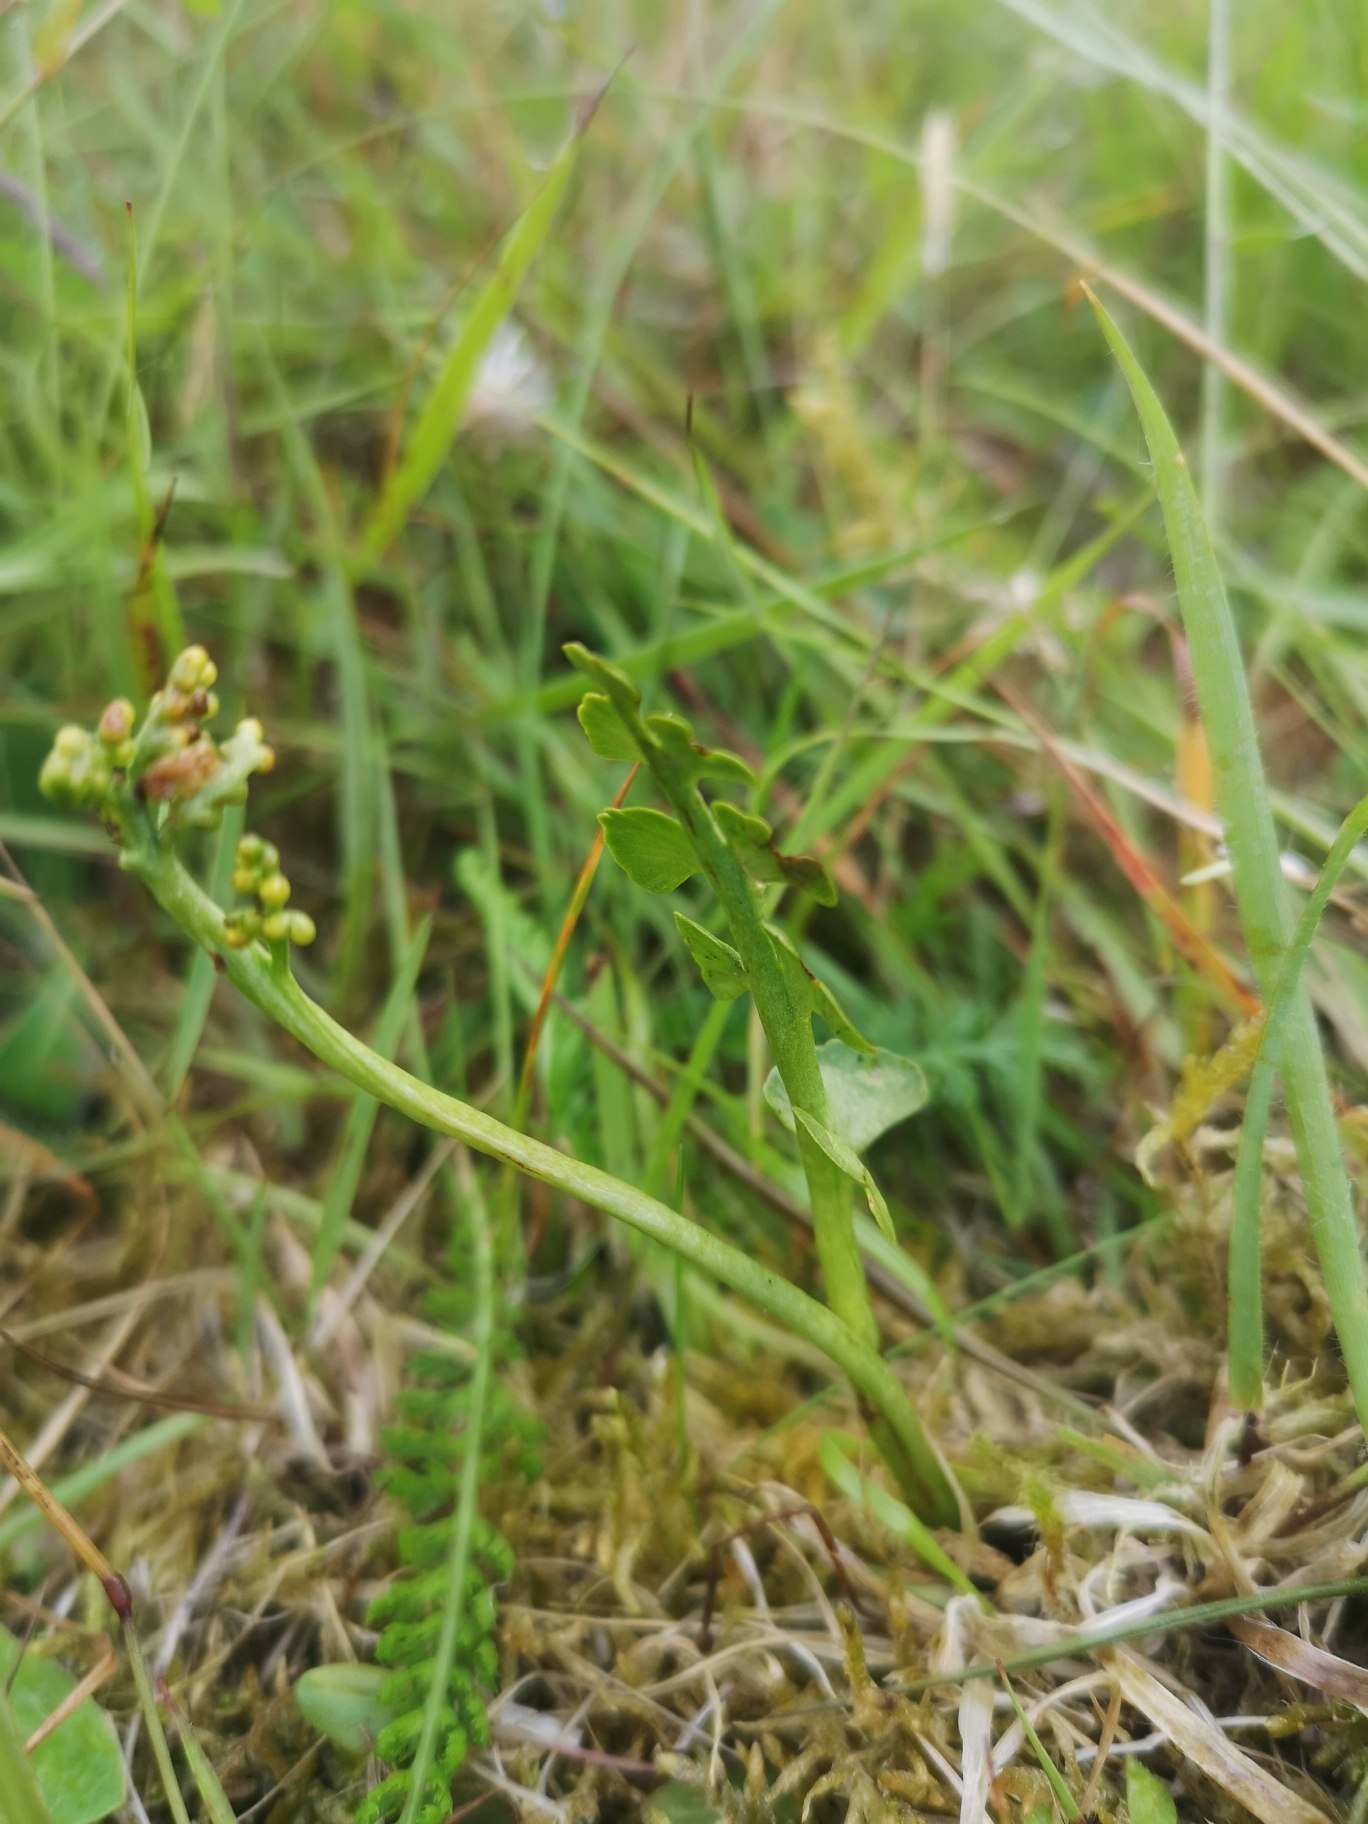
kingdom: Plantae
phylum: Tracheophyta
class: Polypodiopsida
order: Ophioglossales
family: Ophioglossaceae
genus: Botrychium
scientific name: Botrychium lunaria
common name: Almindelig månerude
